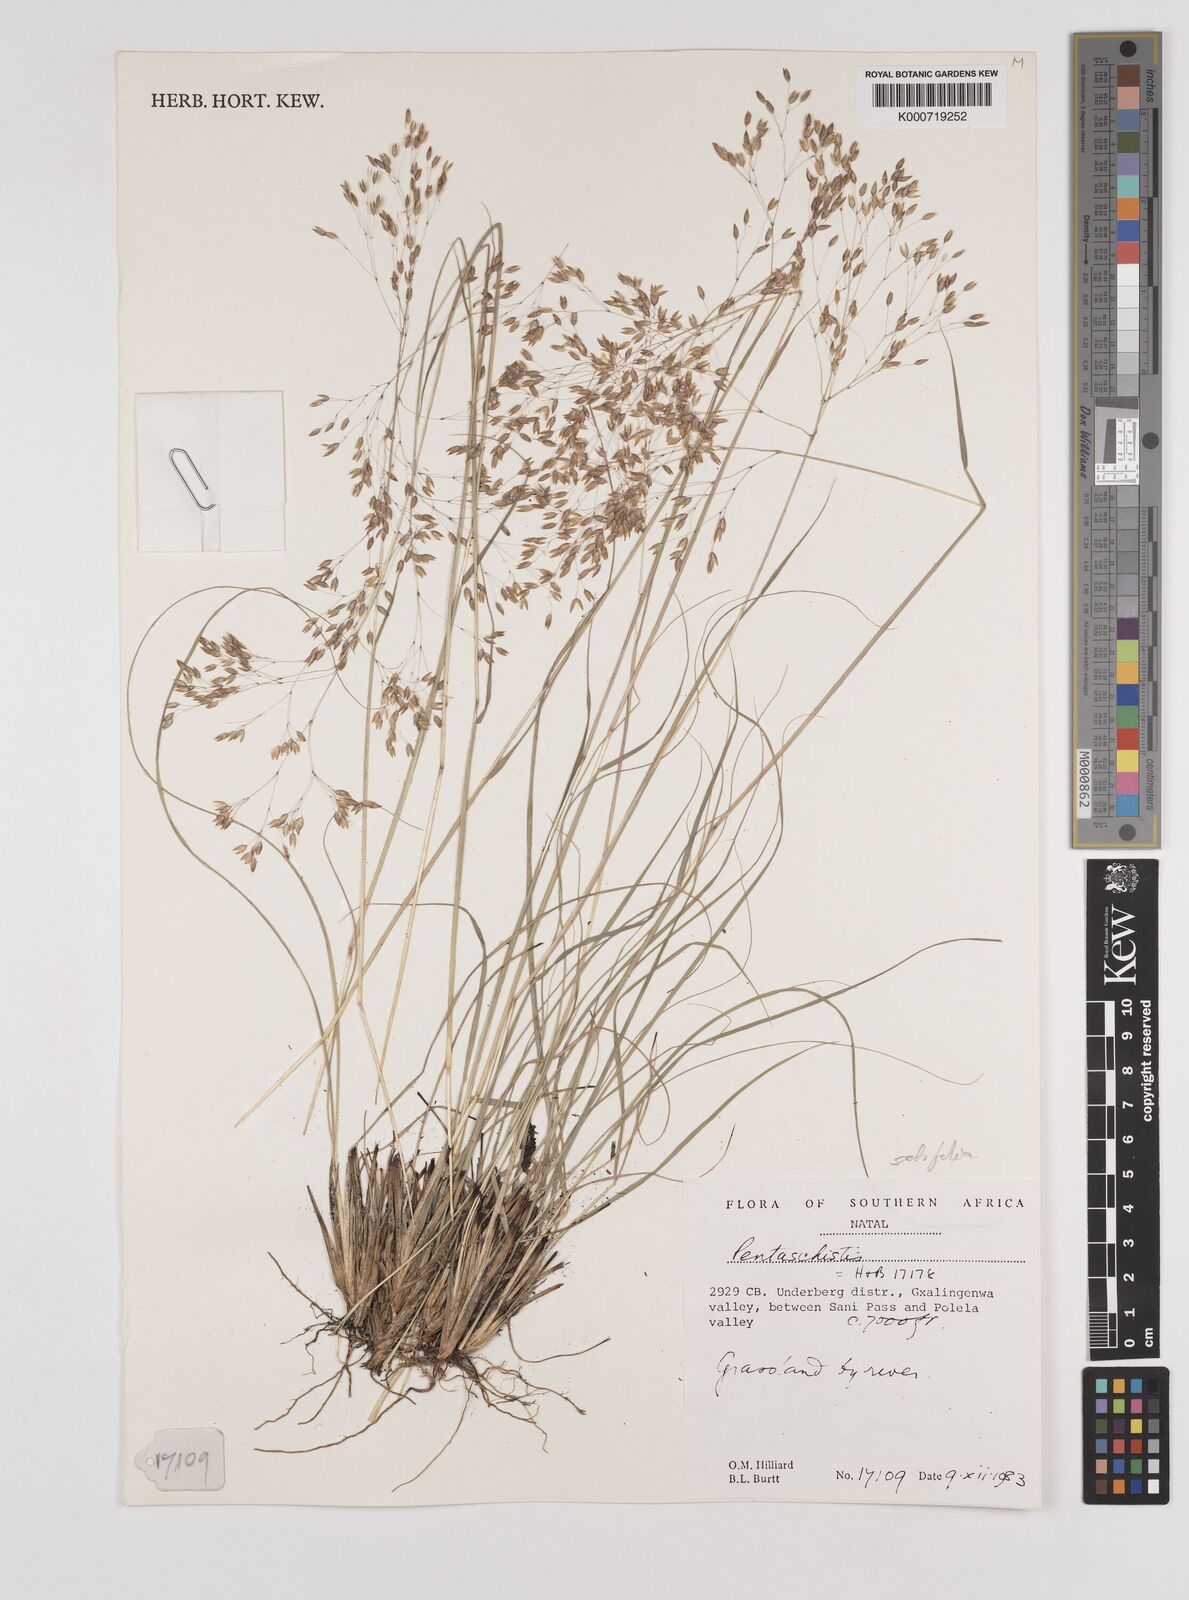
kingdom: Plantae
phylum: Tracheophyta
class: Liliopsida
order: Poales
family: Poaceae
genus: Pentameris
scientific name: Pentameris setifolia
